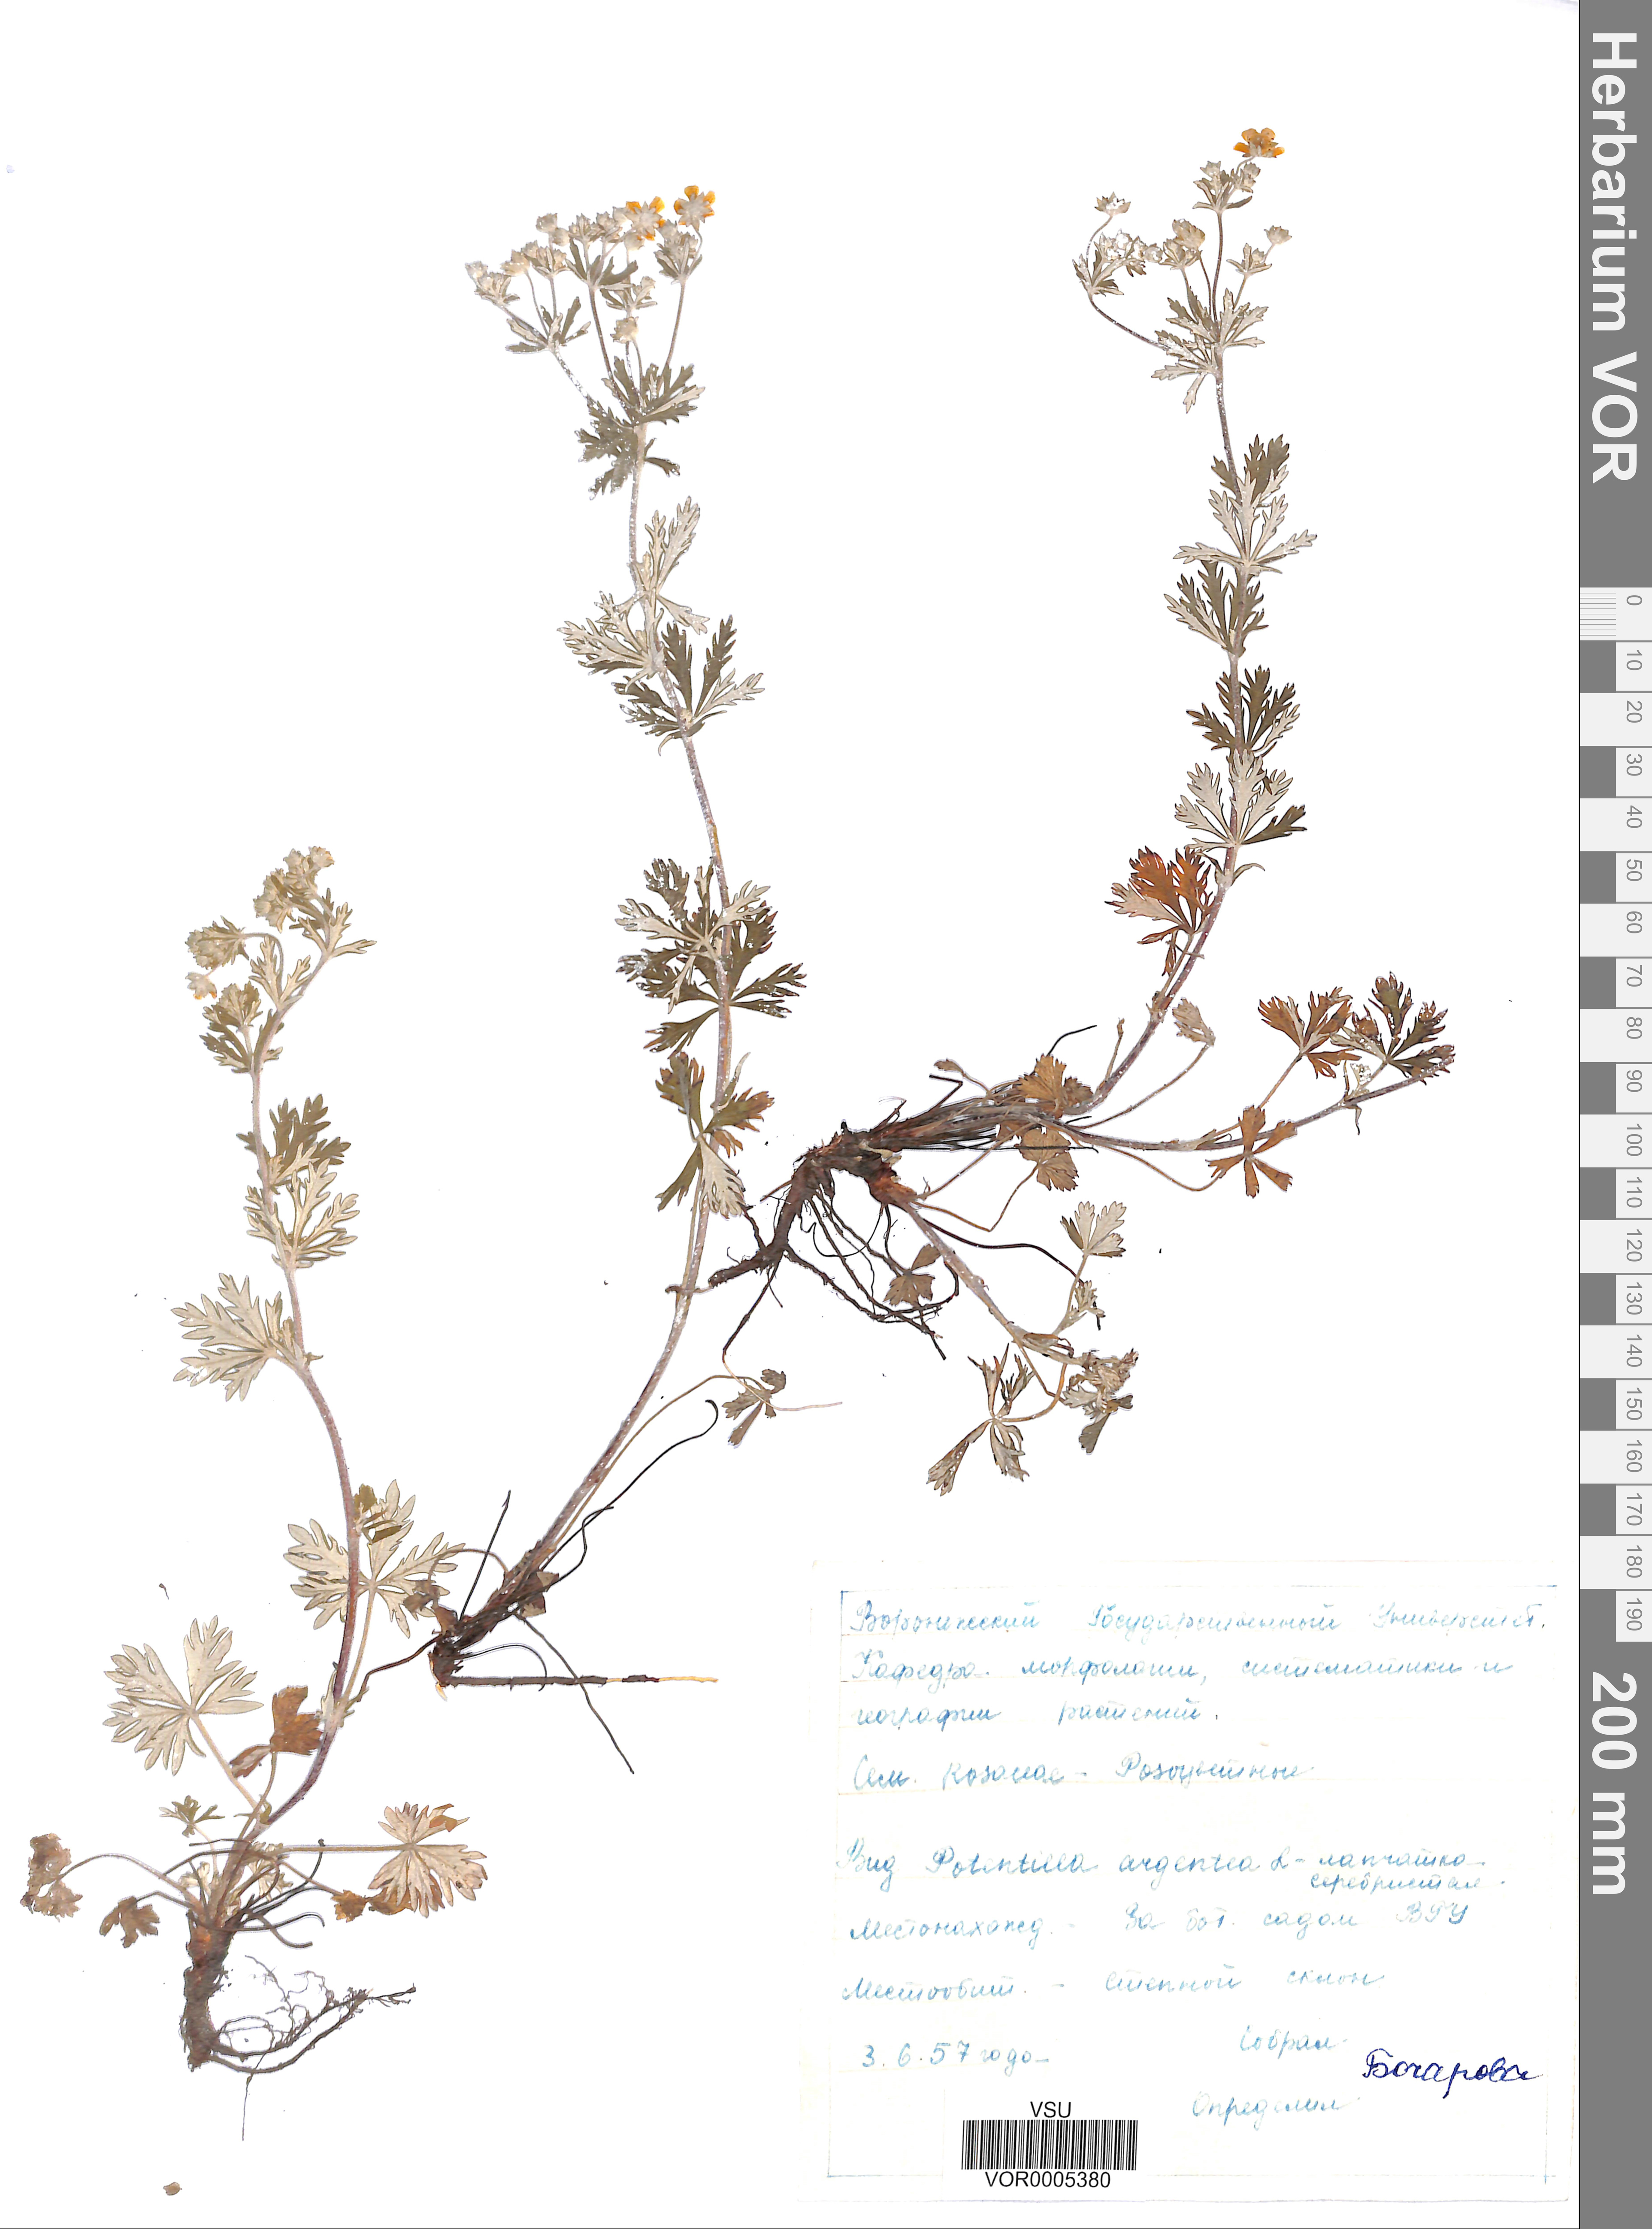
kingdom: Plantae
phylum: Tracheophyta
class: Magnoliopsida
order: Rosales
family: Rosaceae
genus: Potentilla
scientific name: Potentilla argentea
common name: Hoary cinquefoil
